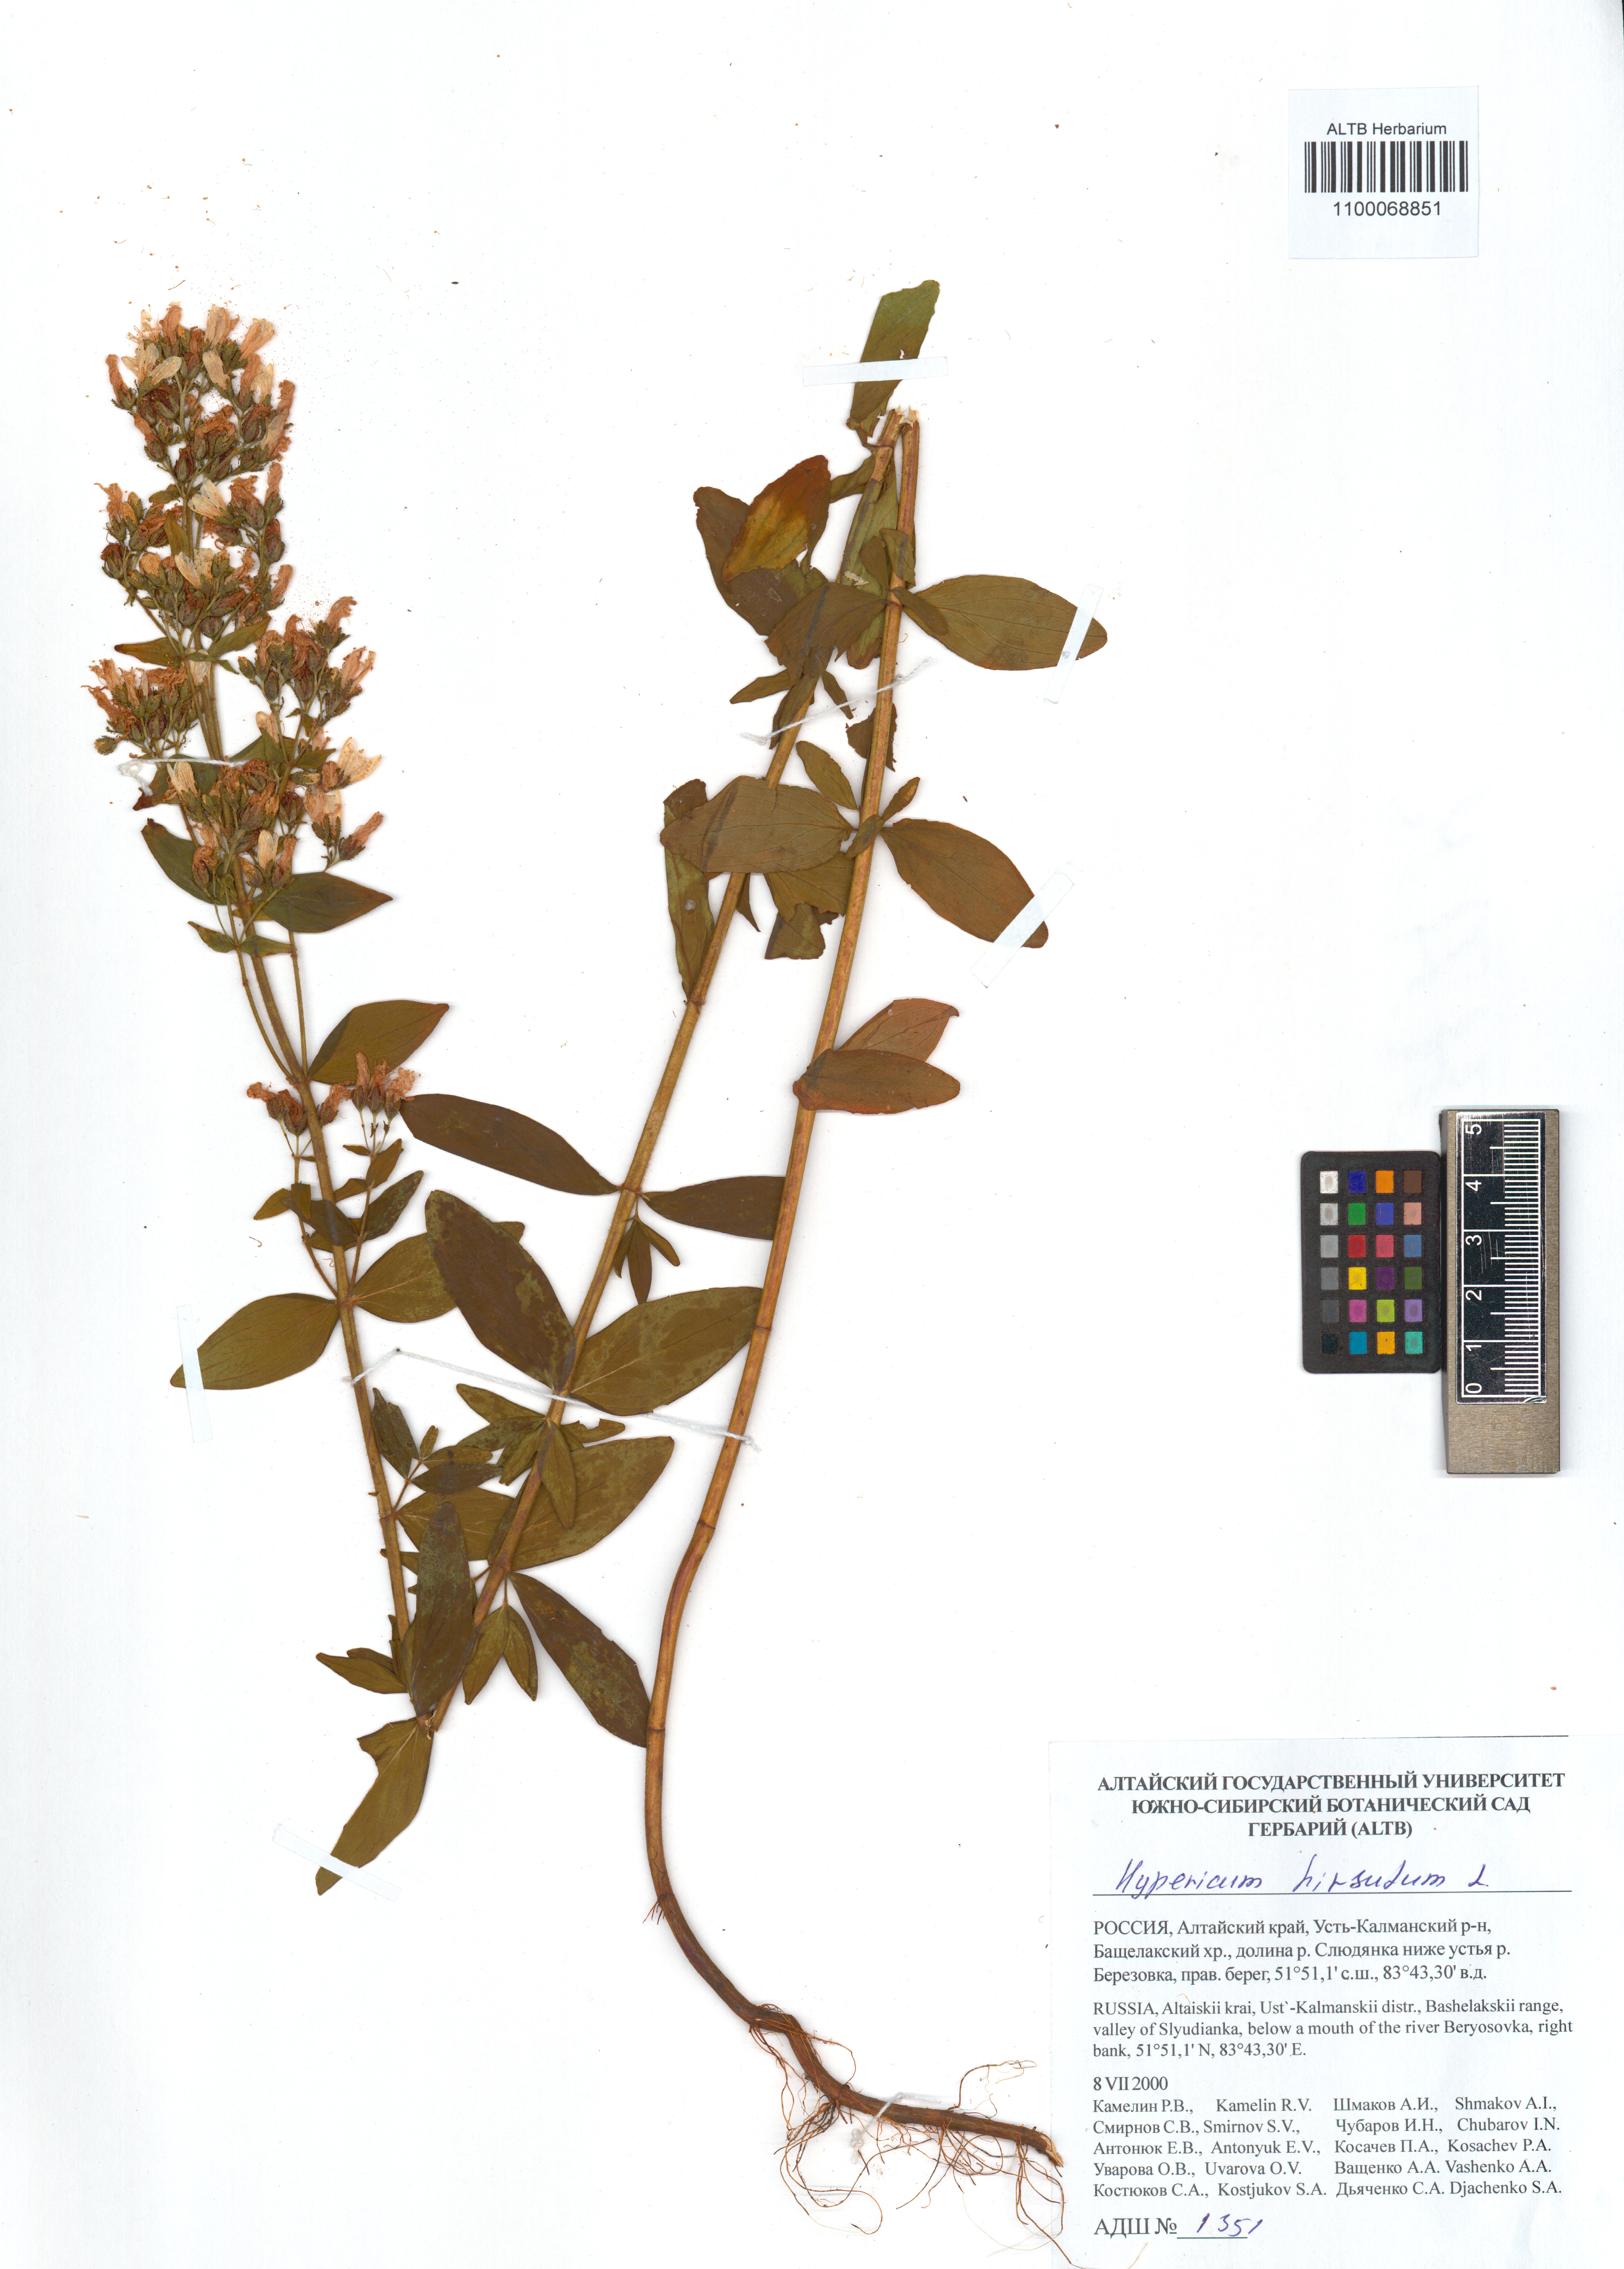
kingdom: Plantae
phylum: Tracheophyta
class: Magnoliopsida
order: Malpighiales
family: Hypericaceae
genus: Hypericum
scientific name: Hypericum hirsutum
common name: Hairy st. john's-wort
